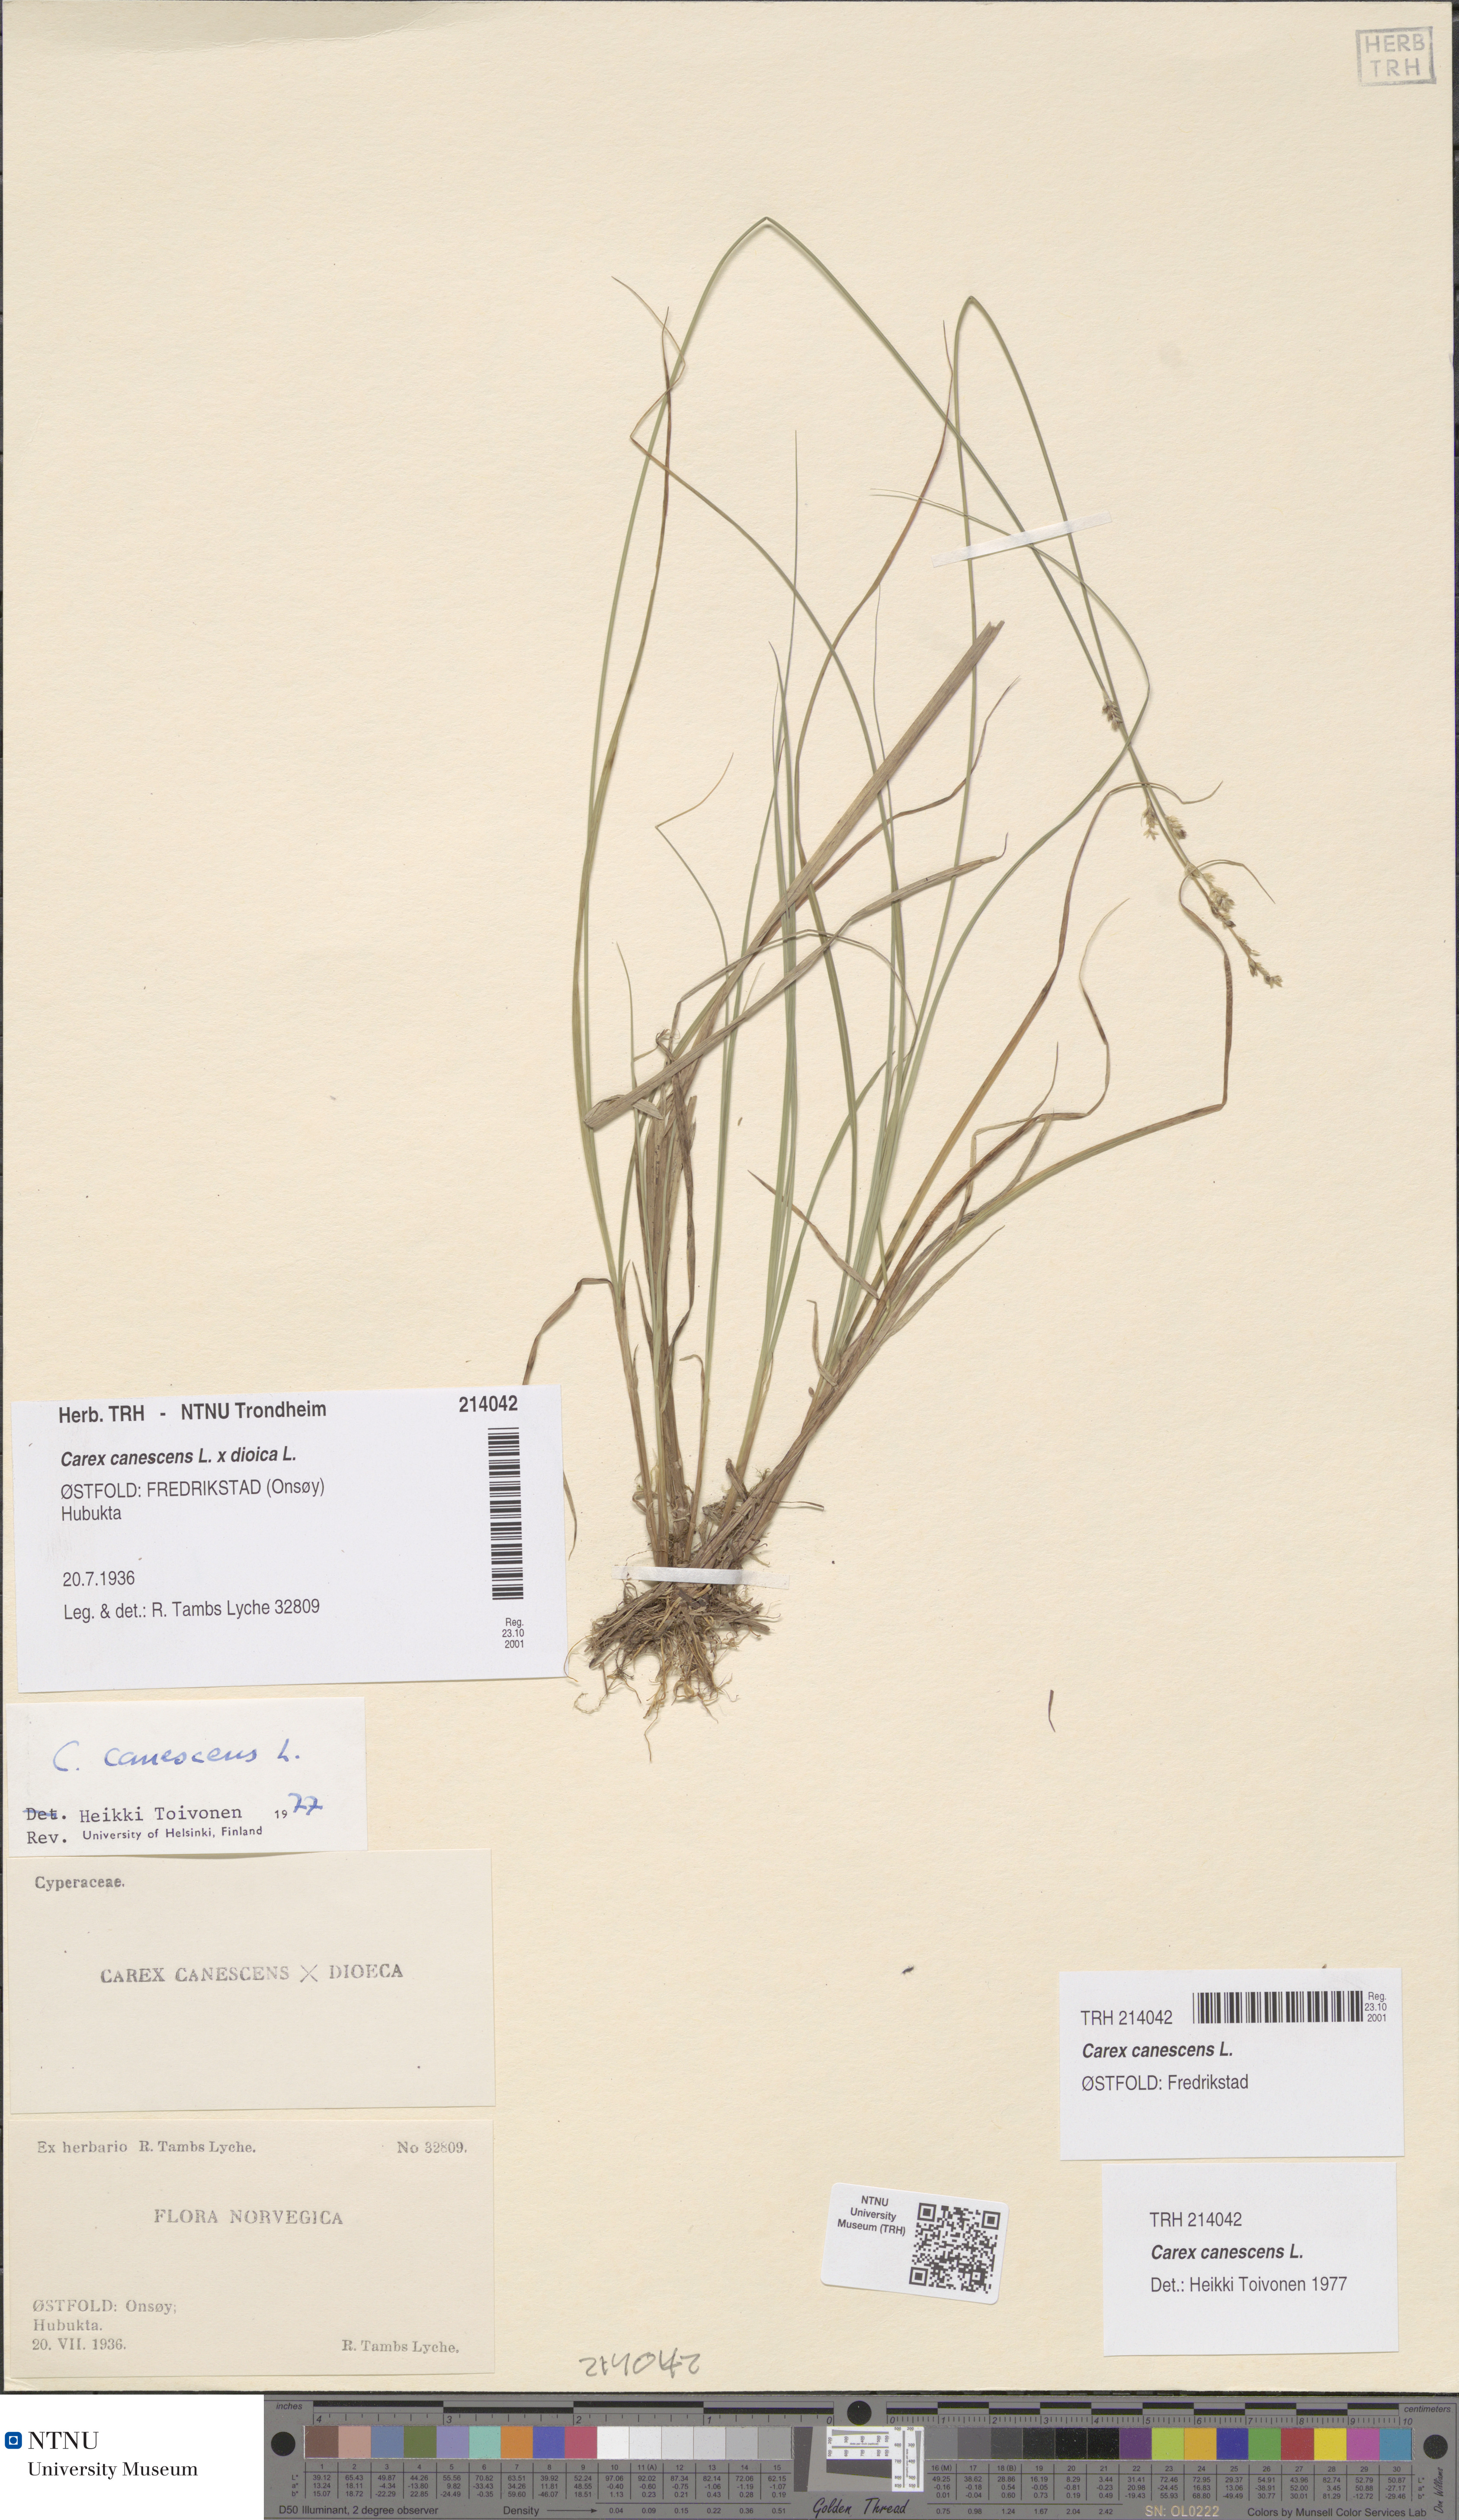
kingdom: Plantae
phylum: Tracheophyta
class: Liliopsida
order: Poales
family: Cyperaceae
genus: Carex
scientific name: Carex canescens
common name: White sedge
